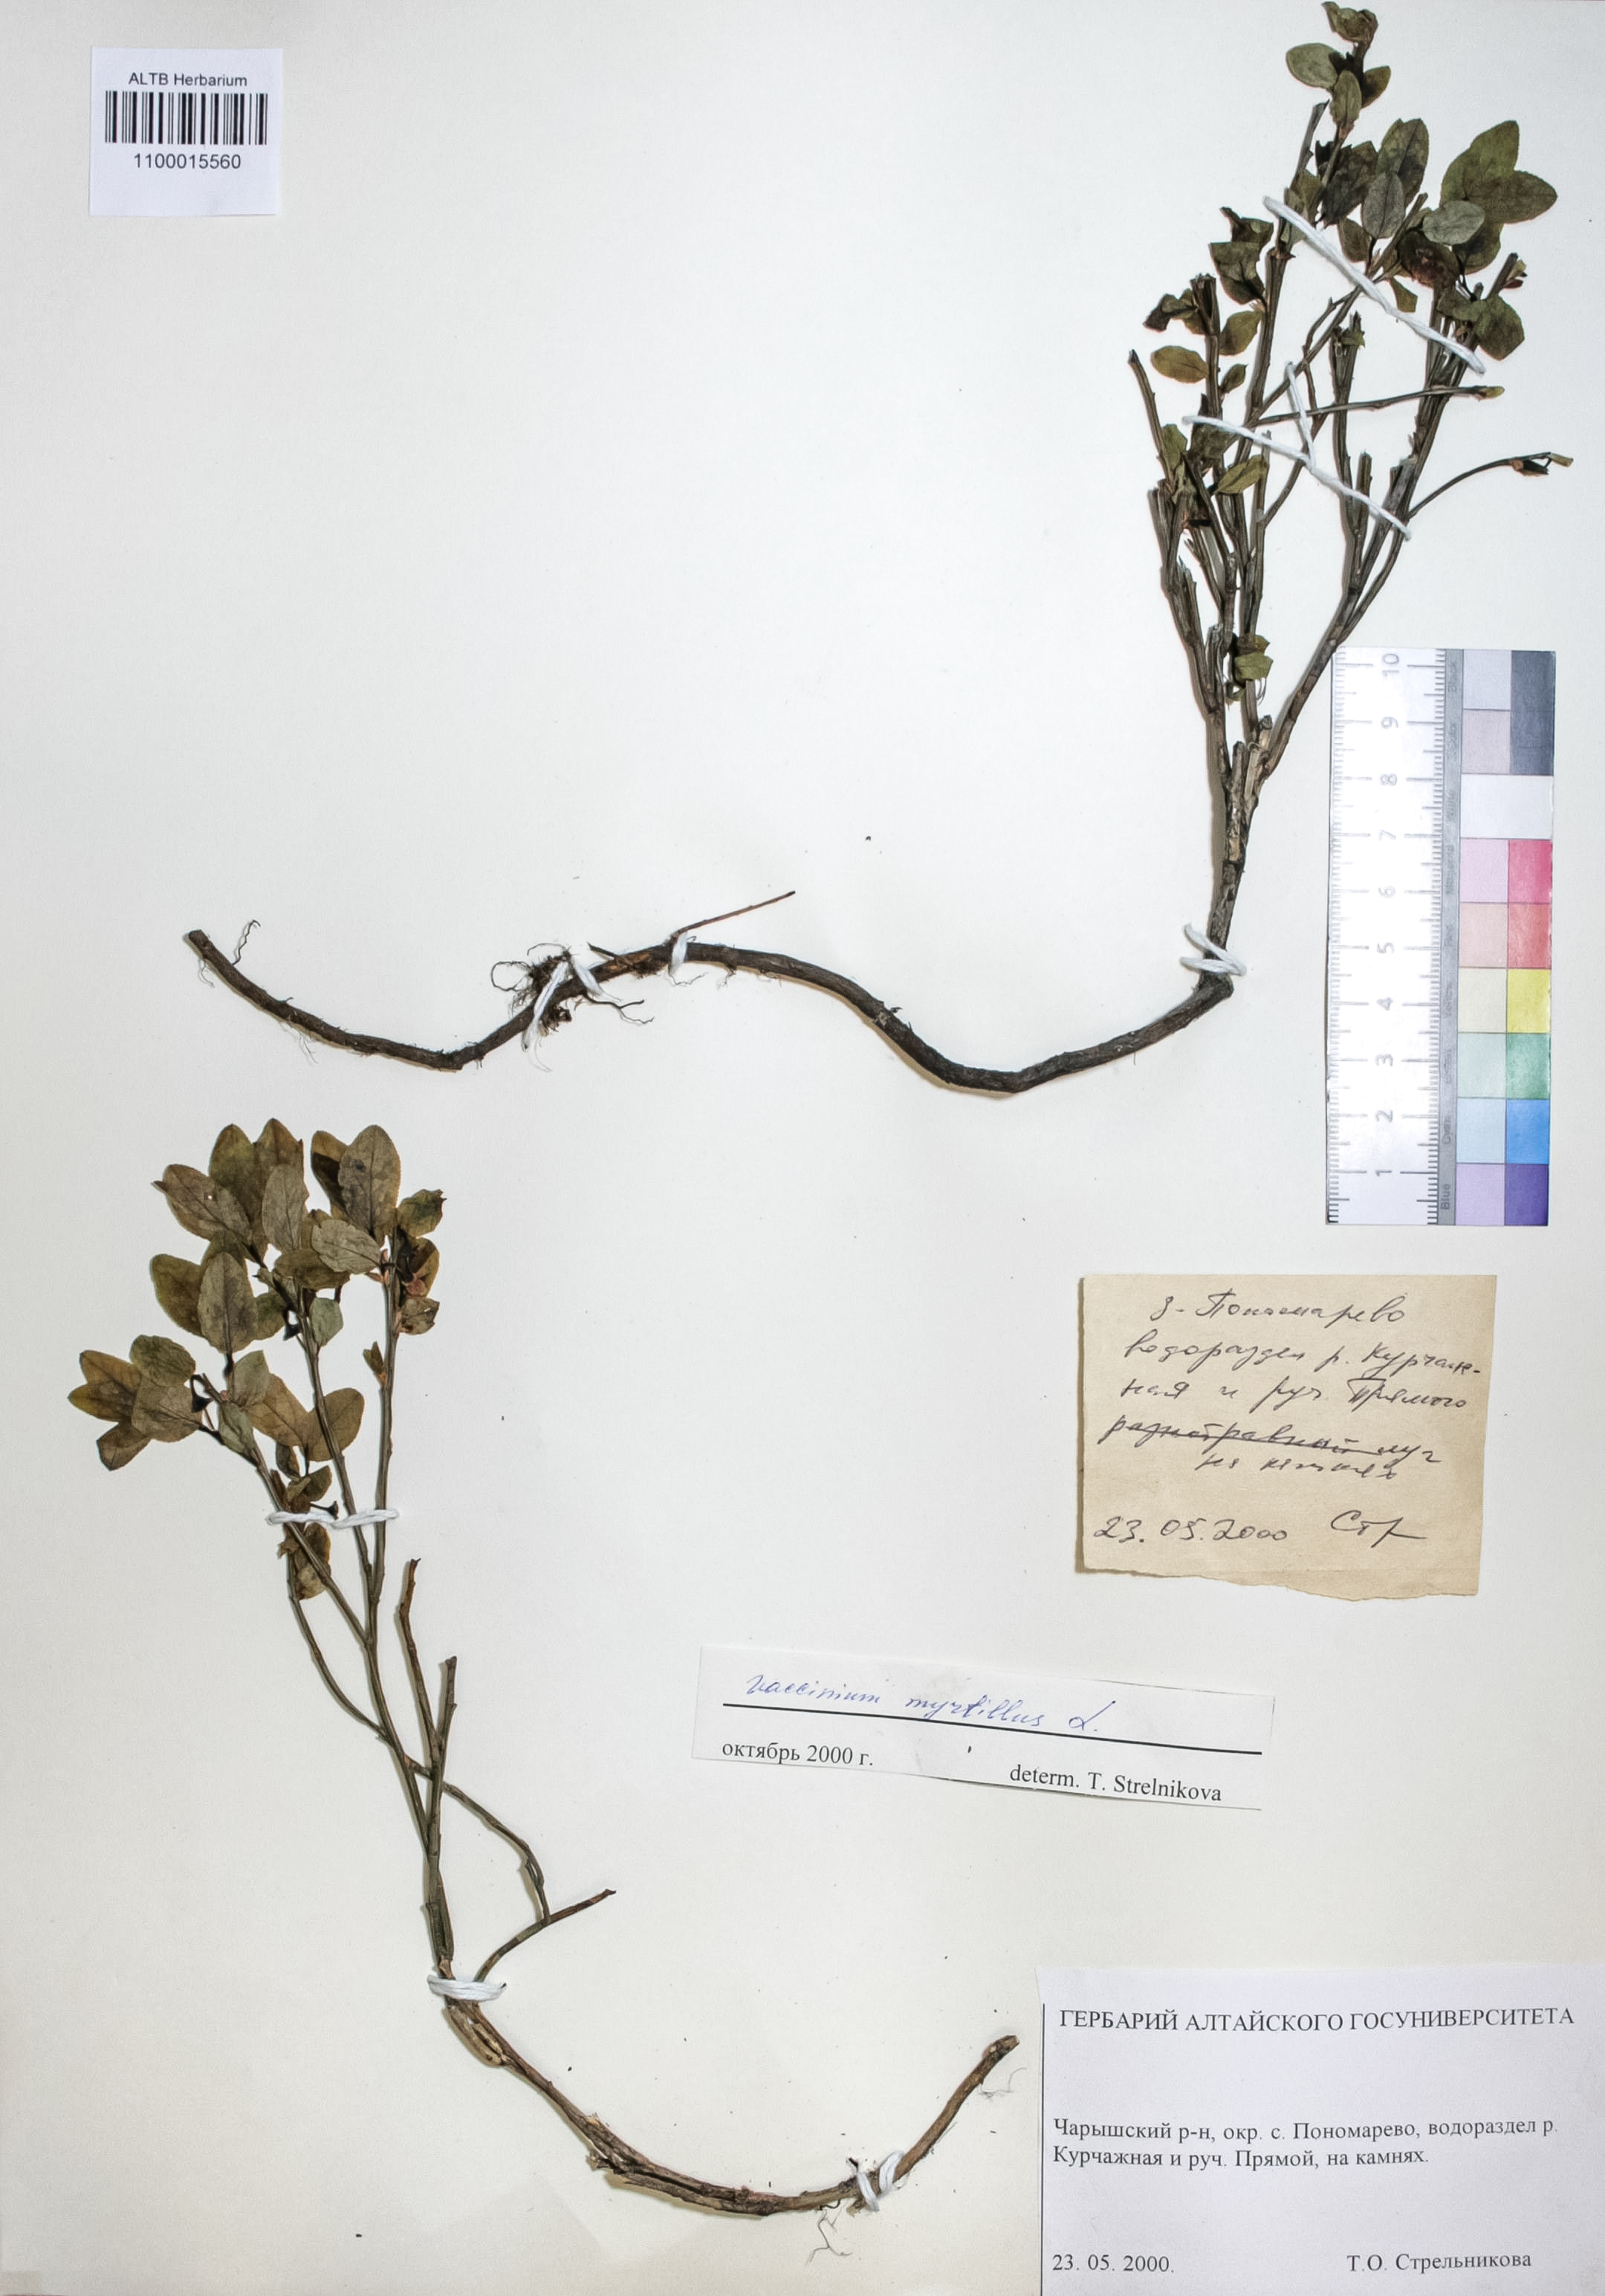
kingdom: Plantae
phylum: Tracheophyta
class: Magnoliopsida
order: Ericales
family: Ericaceae
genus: Vaccinium
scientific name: Vaccinium myrtillus
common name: Bilberry
